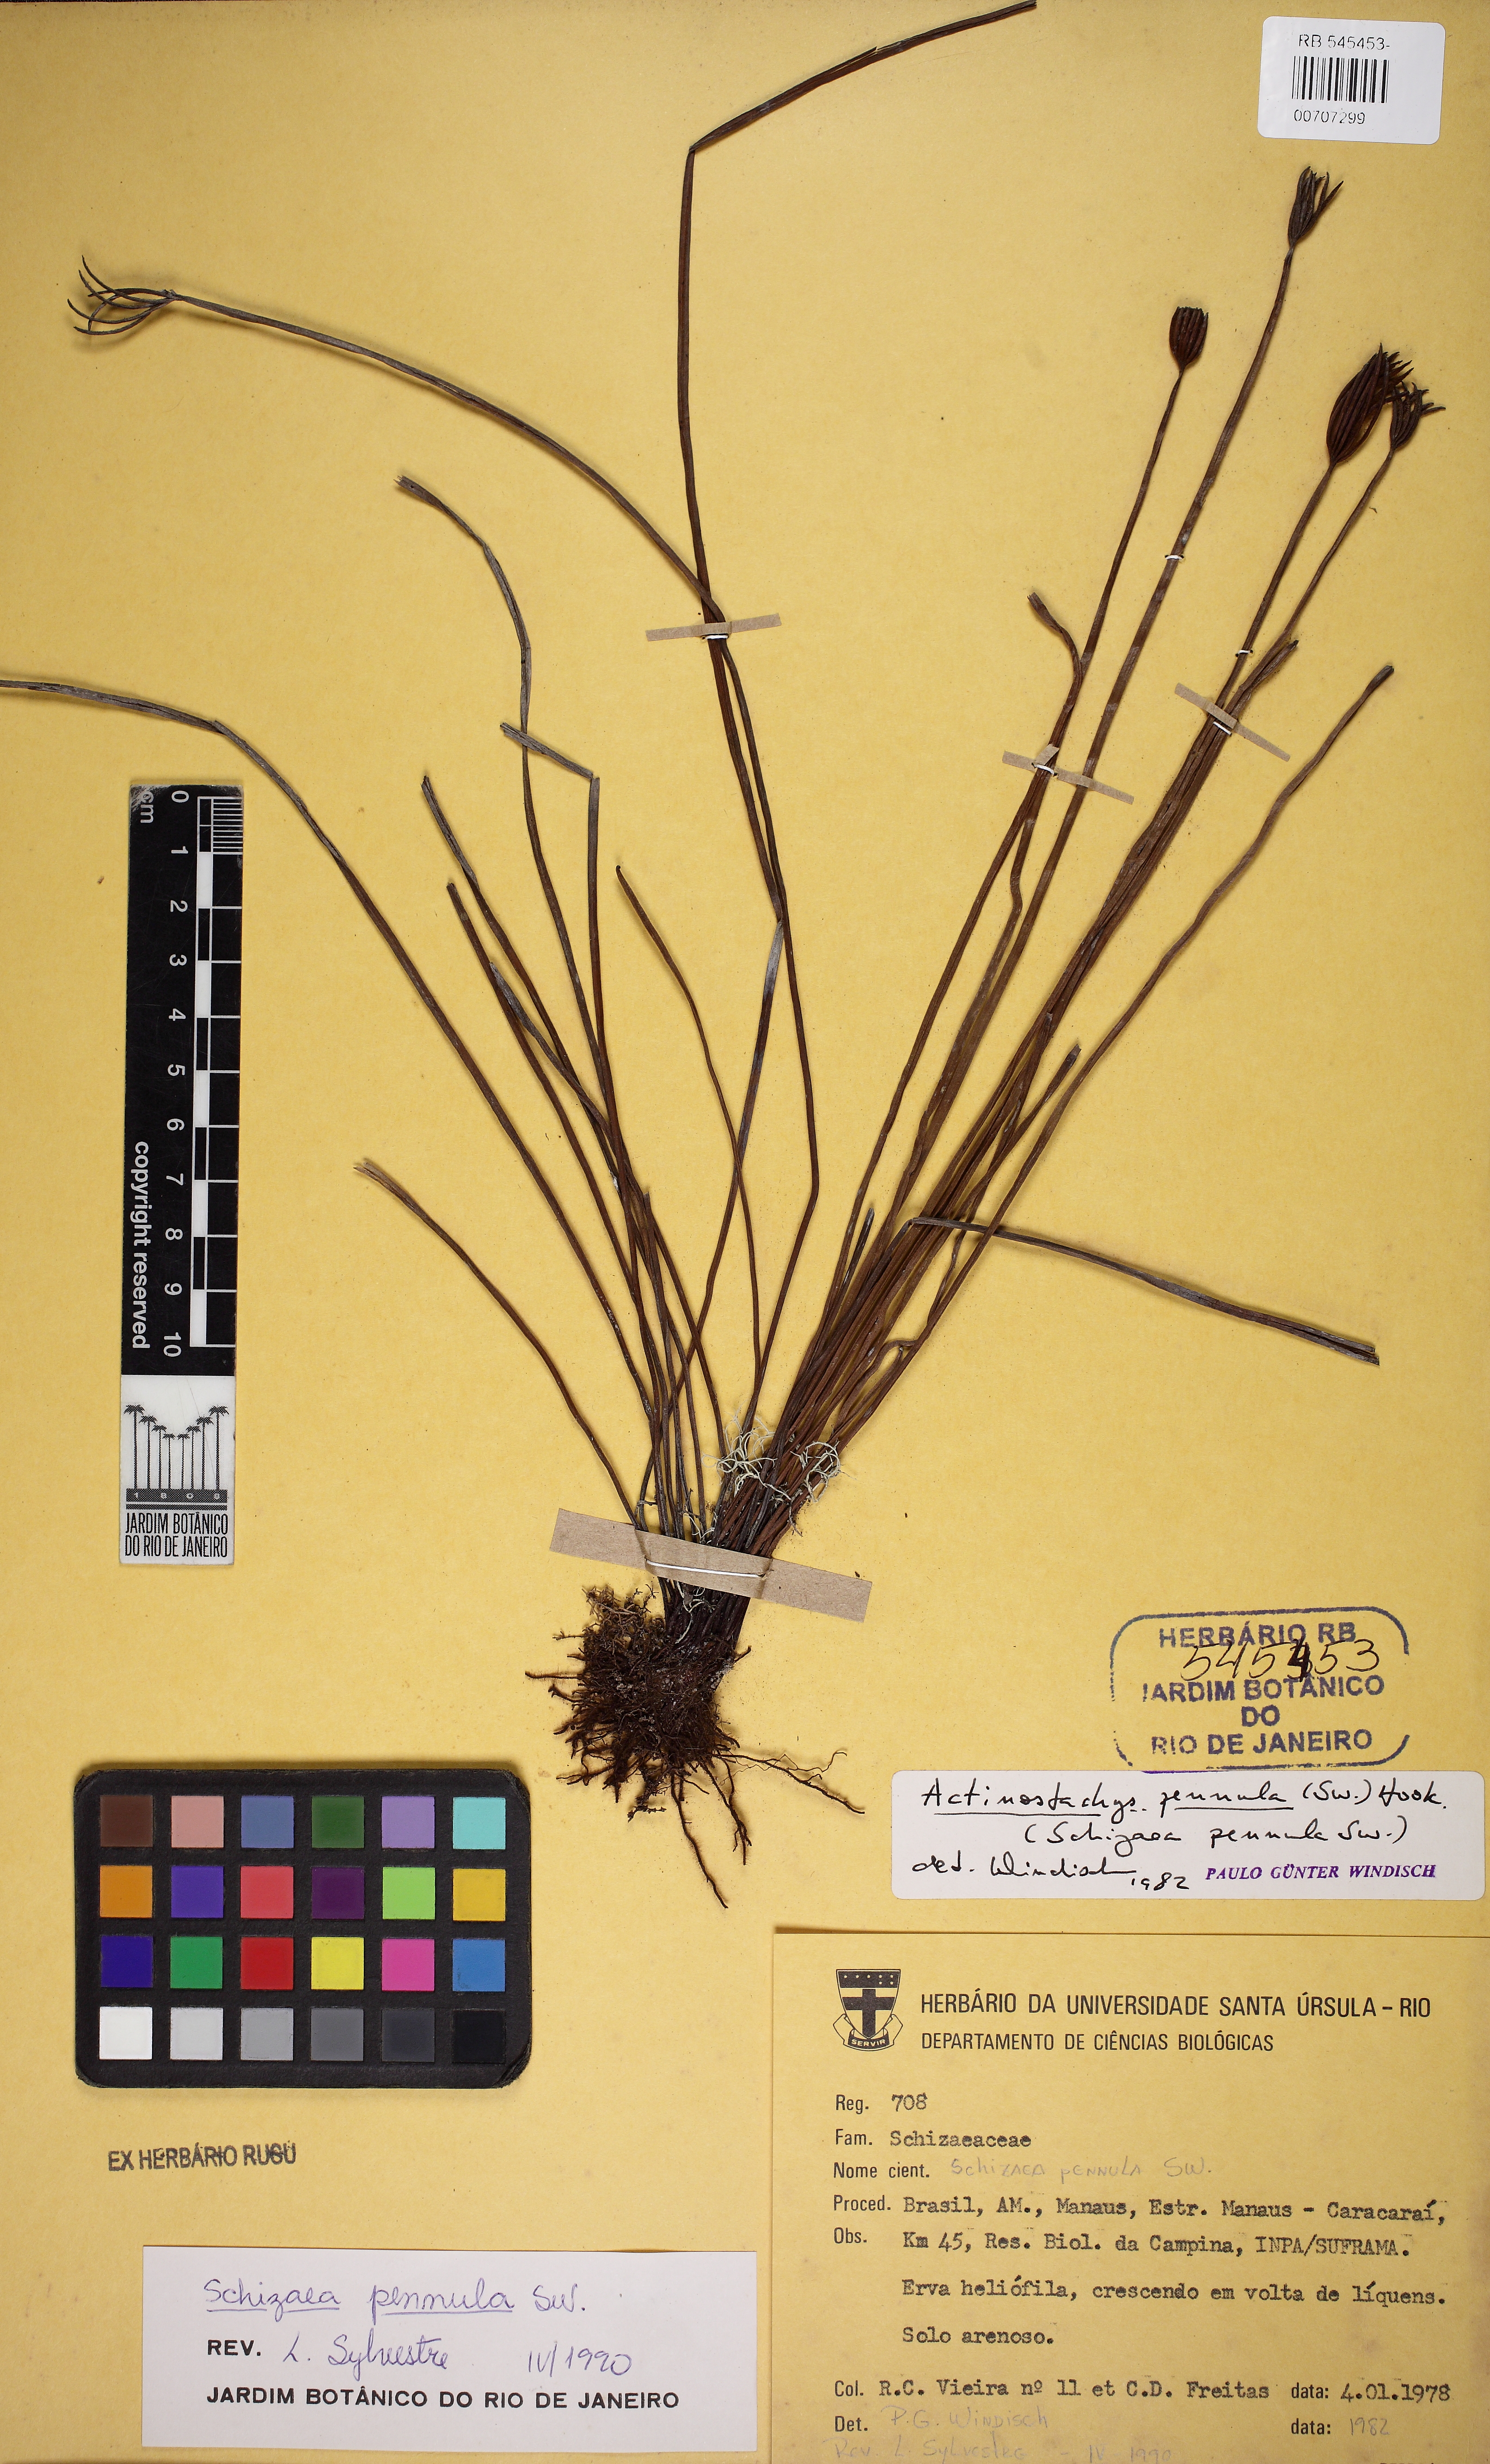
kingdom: Plantae
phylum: Tracheophyta
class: Polypodiopsida
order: Schizaeales
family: Schizaeaceae
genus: Actinostachys
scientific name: Actinostachys pennula
